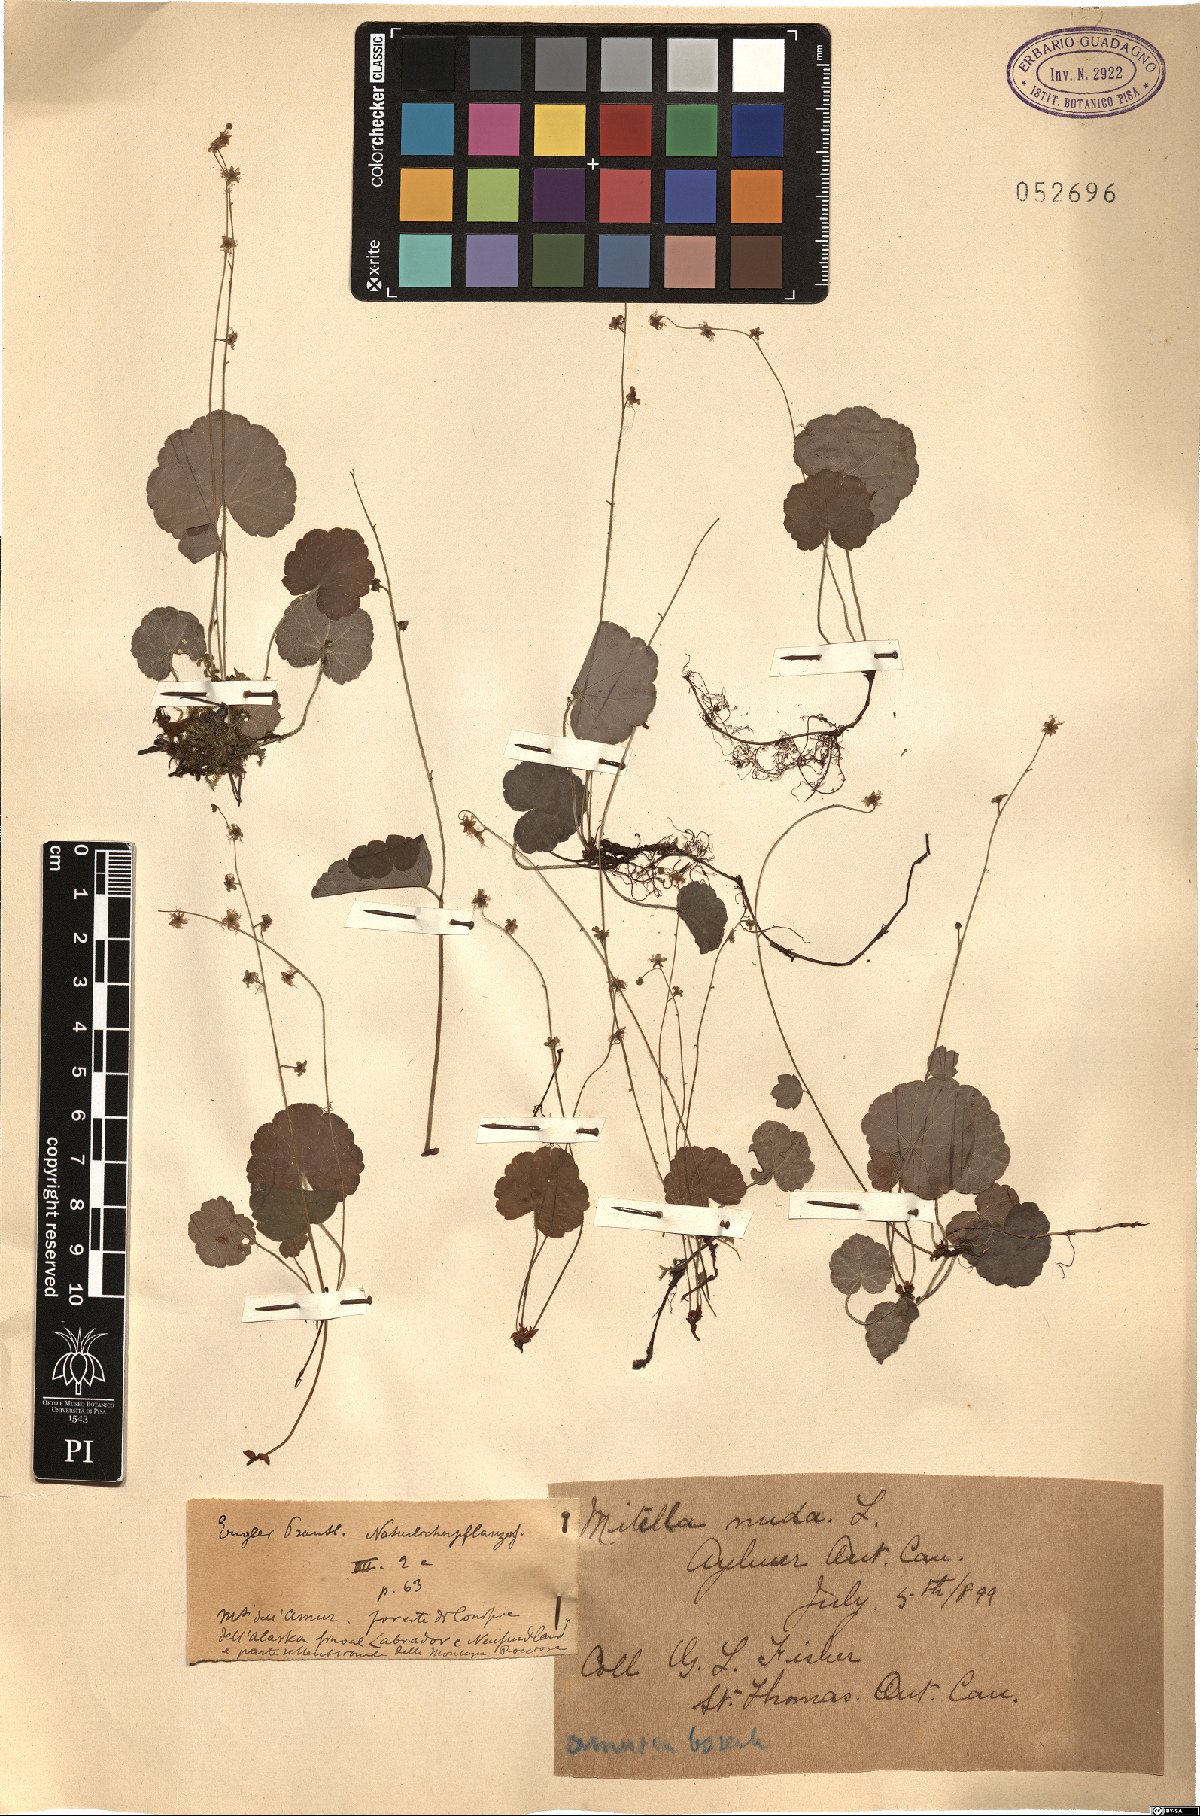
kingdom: Plantae
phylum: Tracheophyta
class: Magnoliopsida
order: Saxifragales
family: Saxifragaceae
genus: Mitella
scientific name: Mitella nuda
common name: Bare-stemmed bishop's-cap
